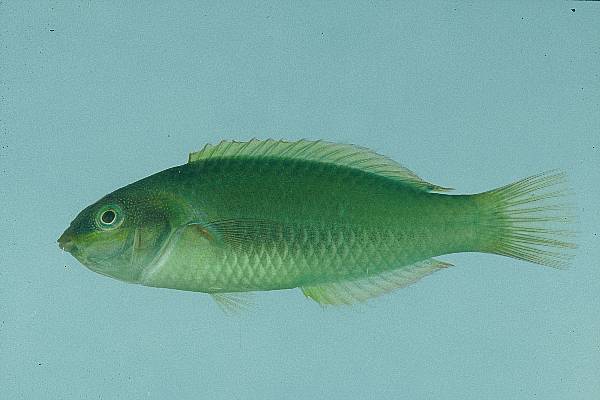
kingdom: Animalia
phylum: Chordata
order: Perciformes
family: Labridae
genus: Stethojulis
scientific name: Stethojulis albovittata
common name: Bluelined wrasse
